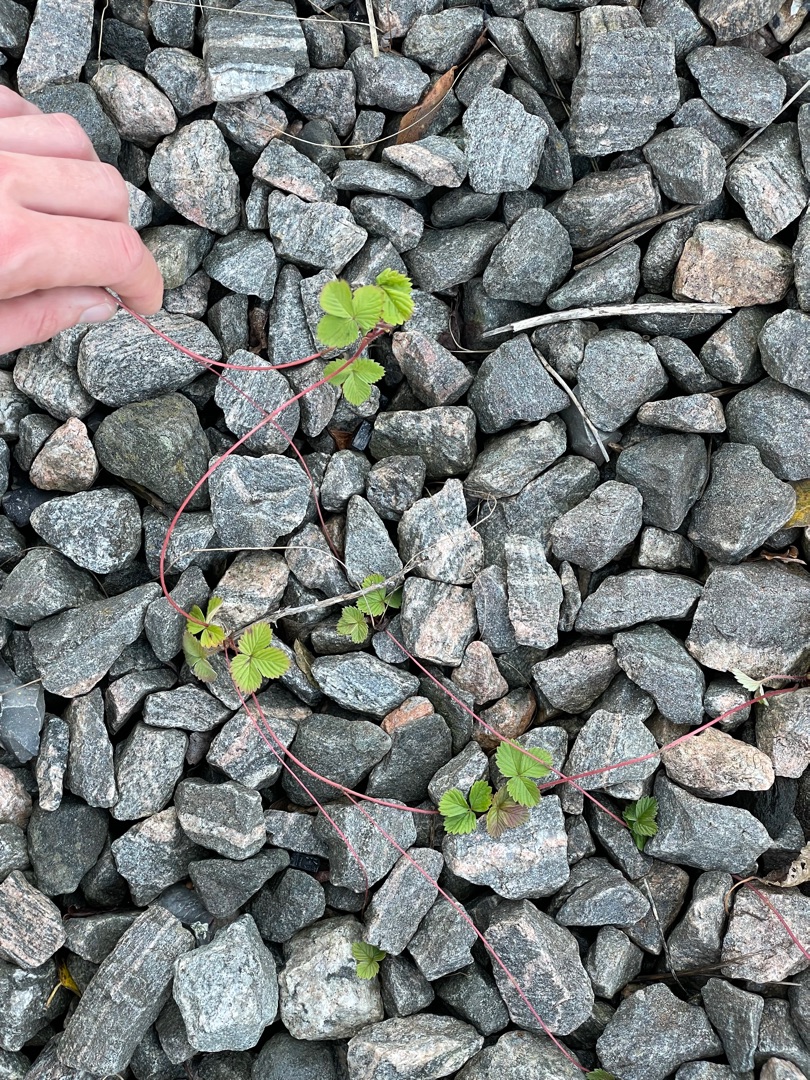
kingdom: Plantae
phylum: Tracheophyta
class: Magnoliopsida
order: Rosales
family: Rosaceae
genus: Fragaria
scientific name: Fragaria vesca
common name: Skov-jordbær
